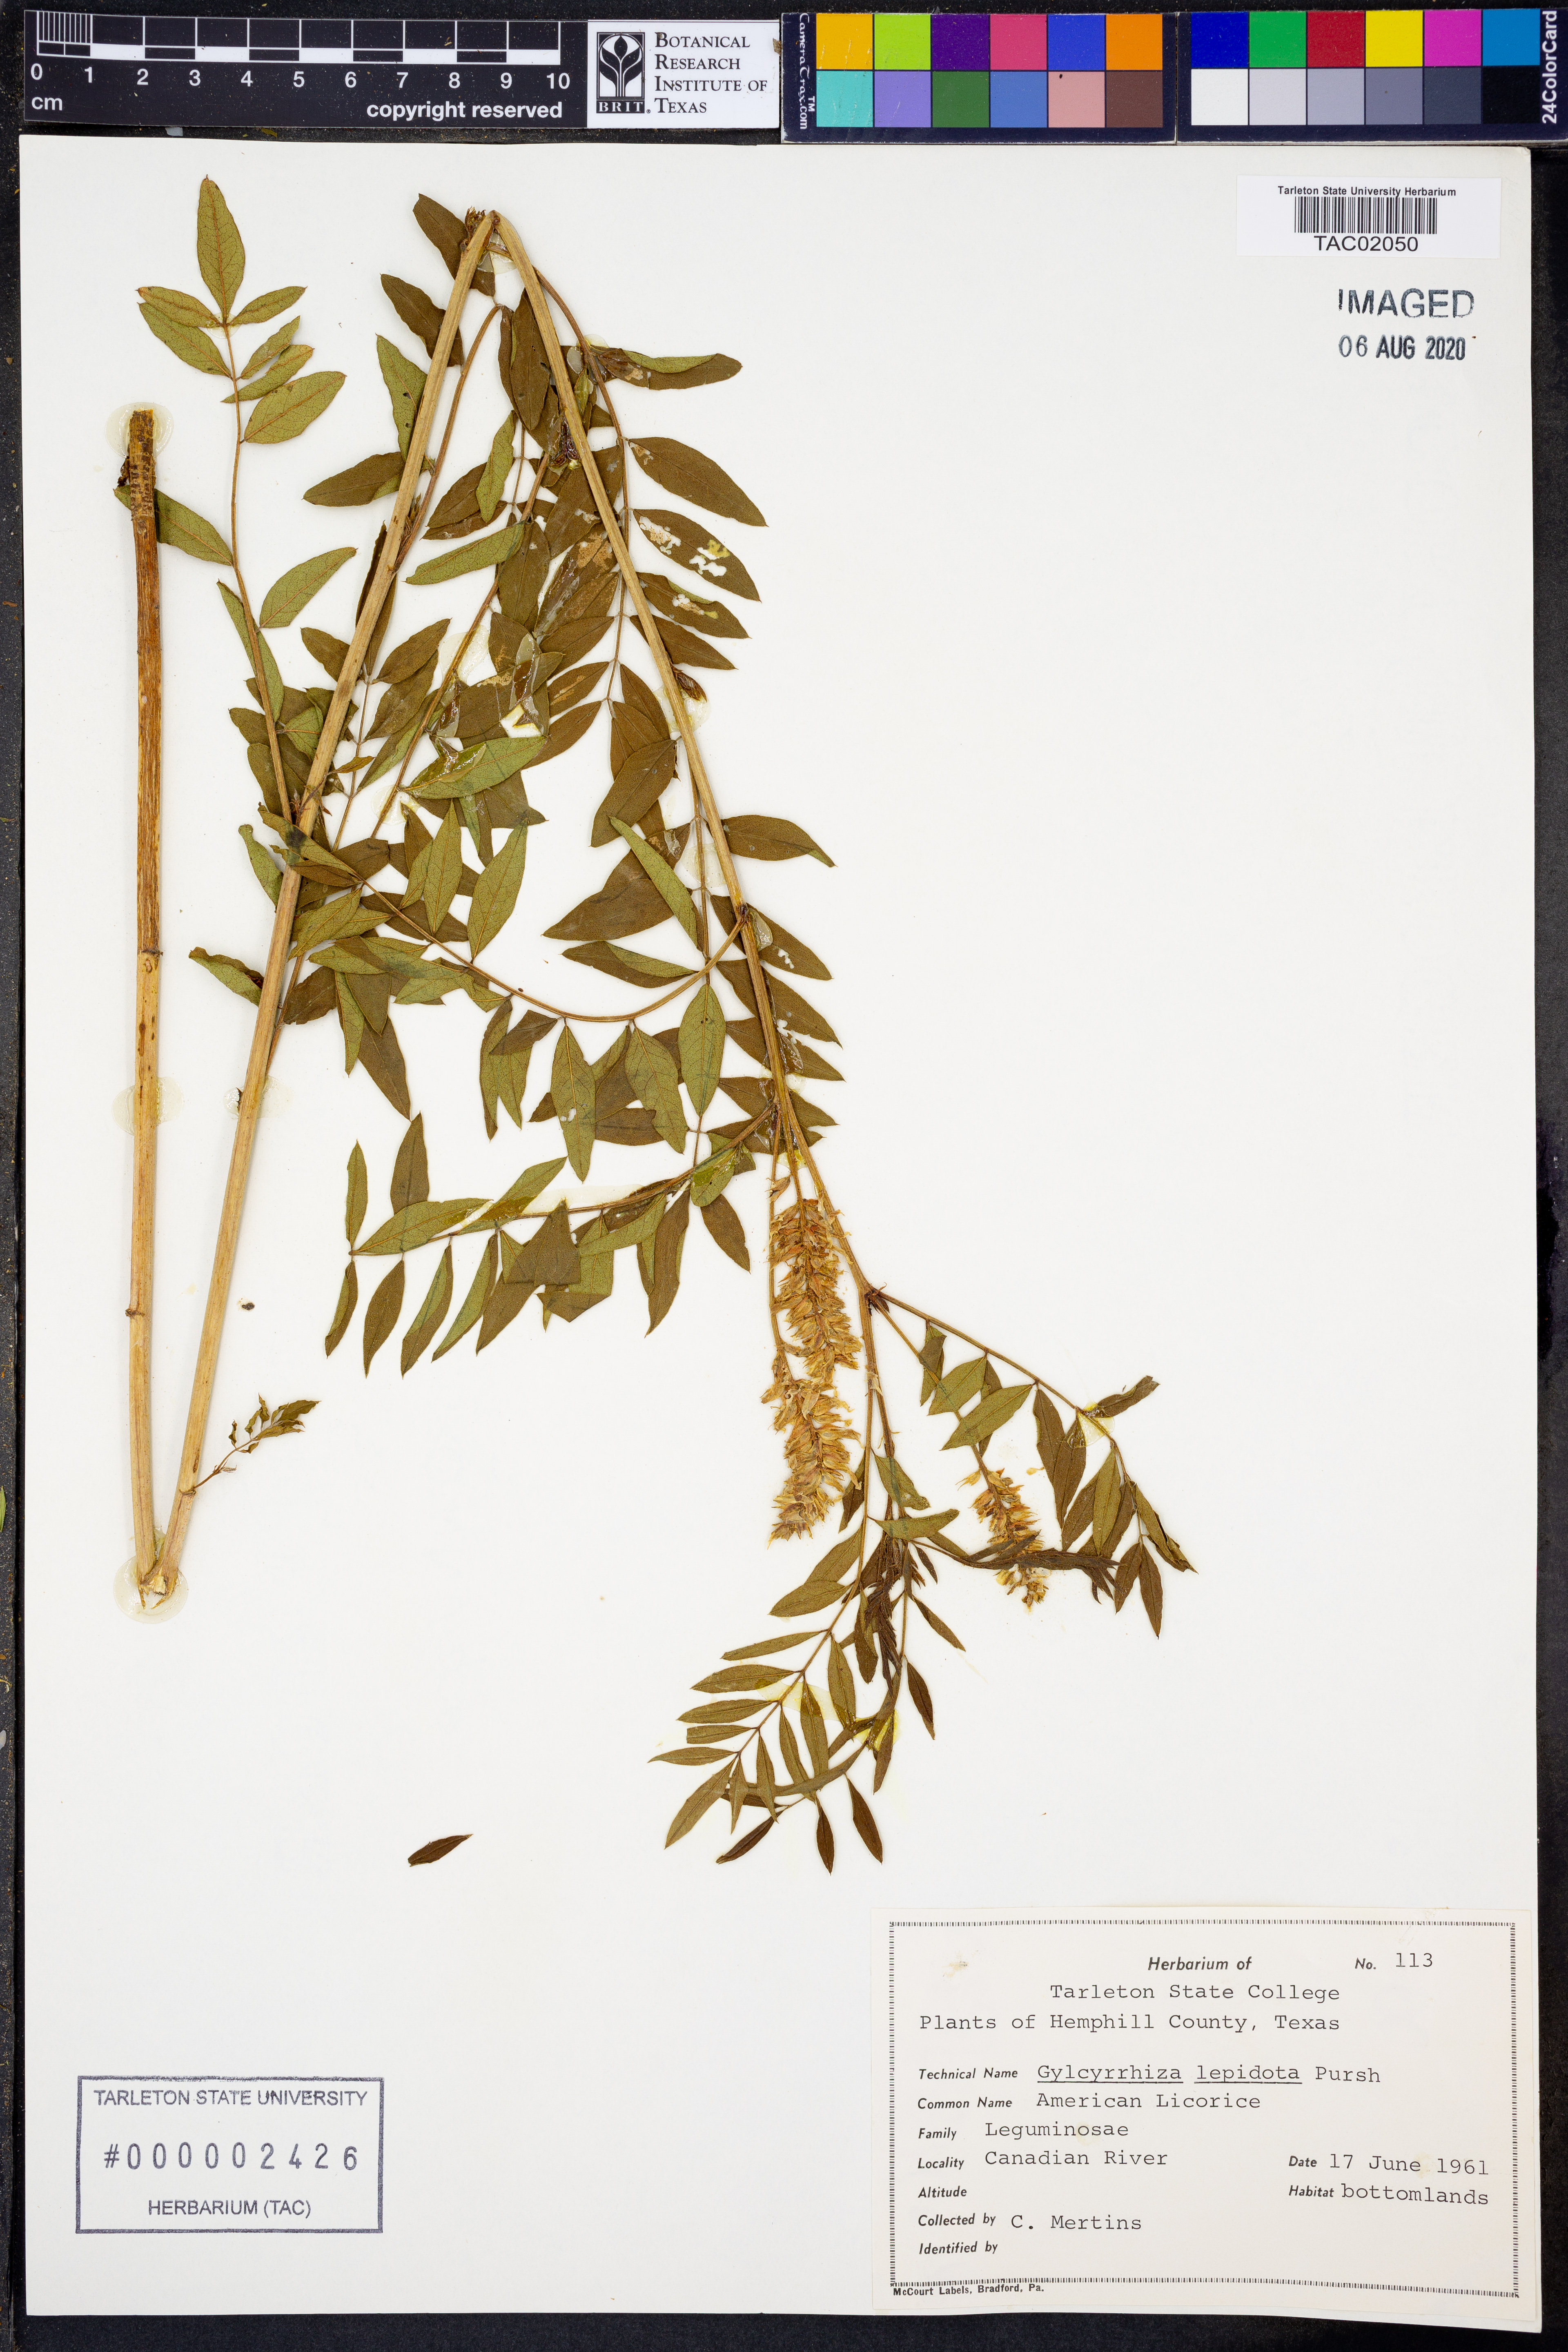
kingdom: Plantae
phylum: Tracheophyta
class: Magnoliopsida
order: Fabales
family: Fabaceae
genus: Glycyrrhiza
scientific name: Glycyrrhiza lepidota
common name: American liquorice
